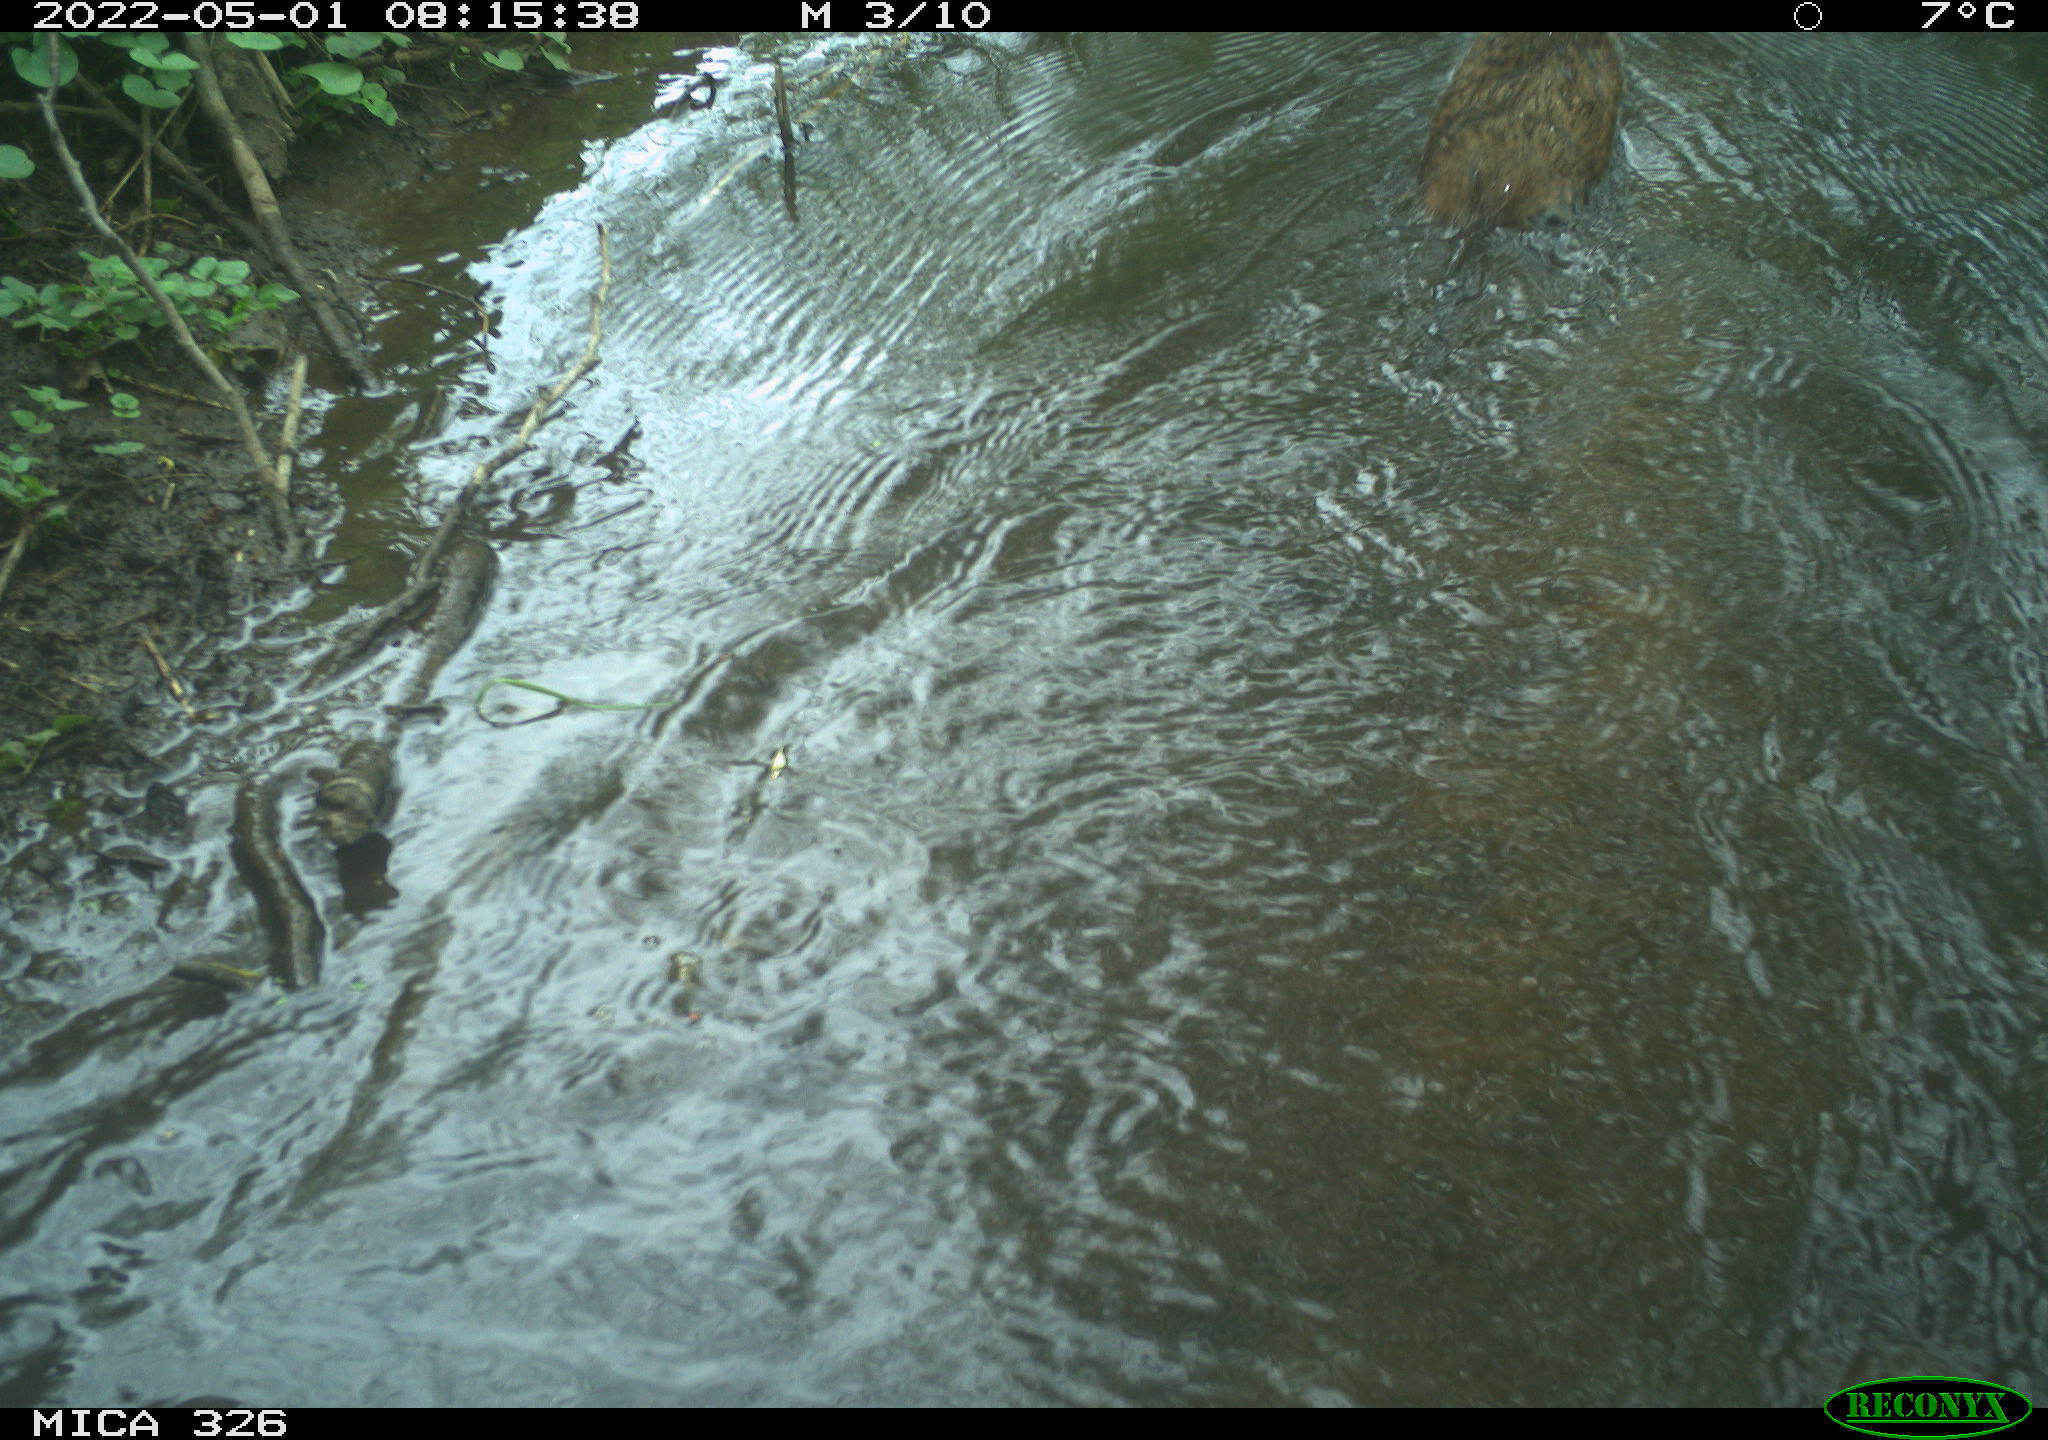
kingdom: Animalia
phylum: Chordata
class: Mammalia
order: Rodentia
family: Cricetidae
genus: Ondatra
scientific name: Ondatra zibethicus
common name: Muskrat
